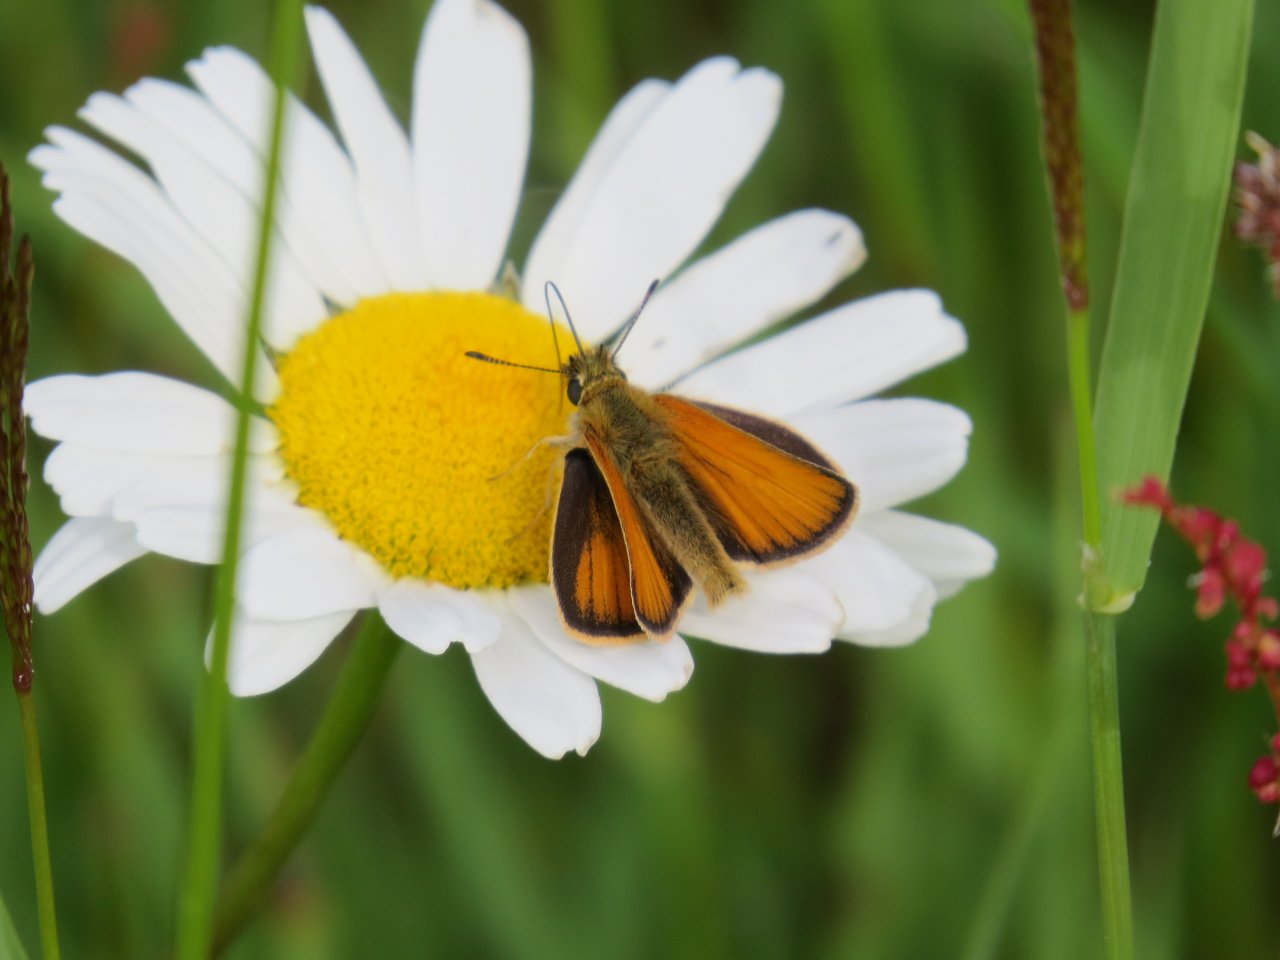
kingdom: Animalia
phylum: Arthropoda
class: Insecta
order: Lepidoptera
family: Hesperiidae
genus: Thymelicus
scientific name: Thymelicus lineola
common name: European Skipper
